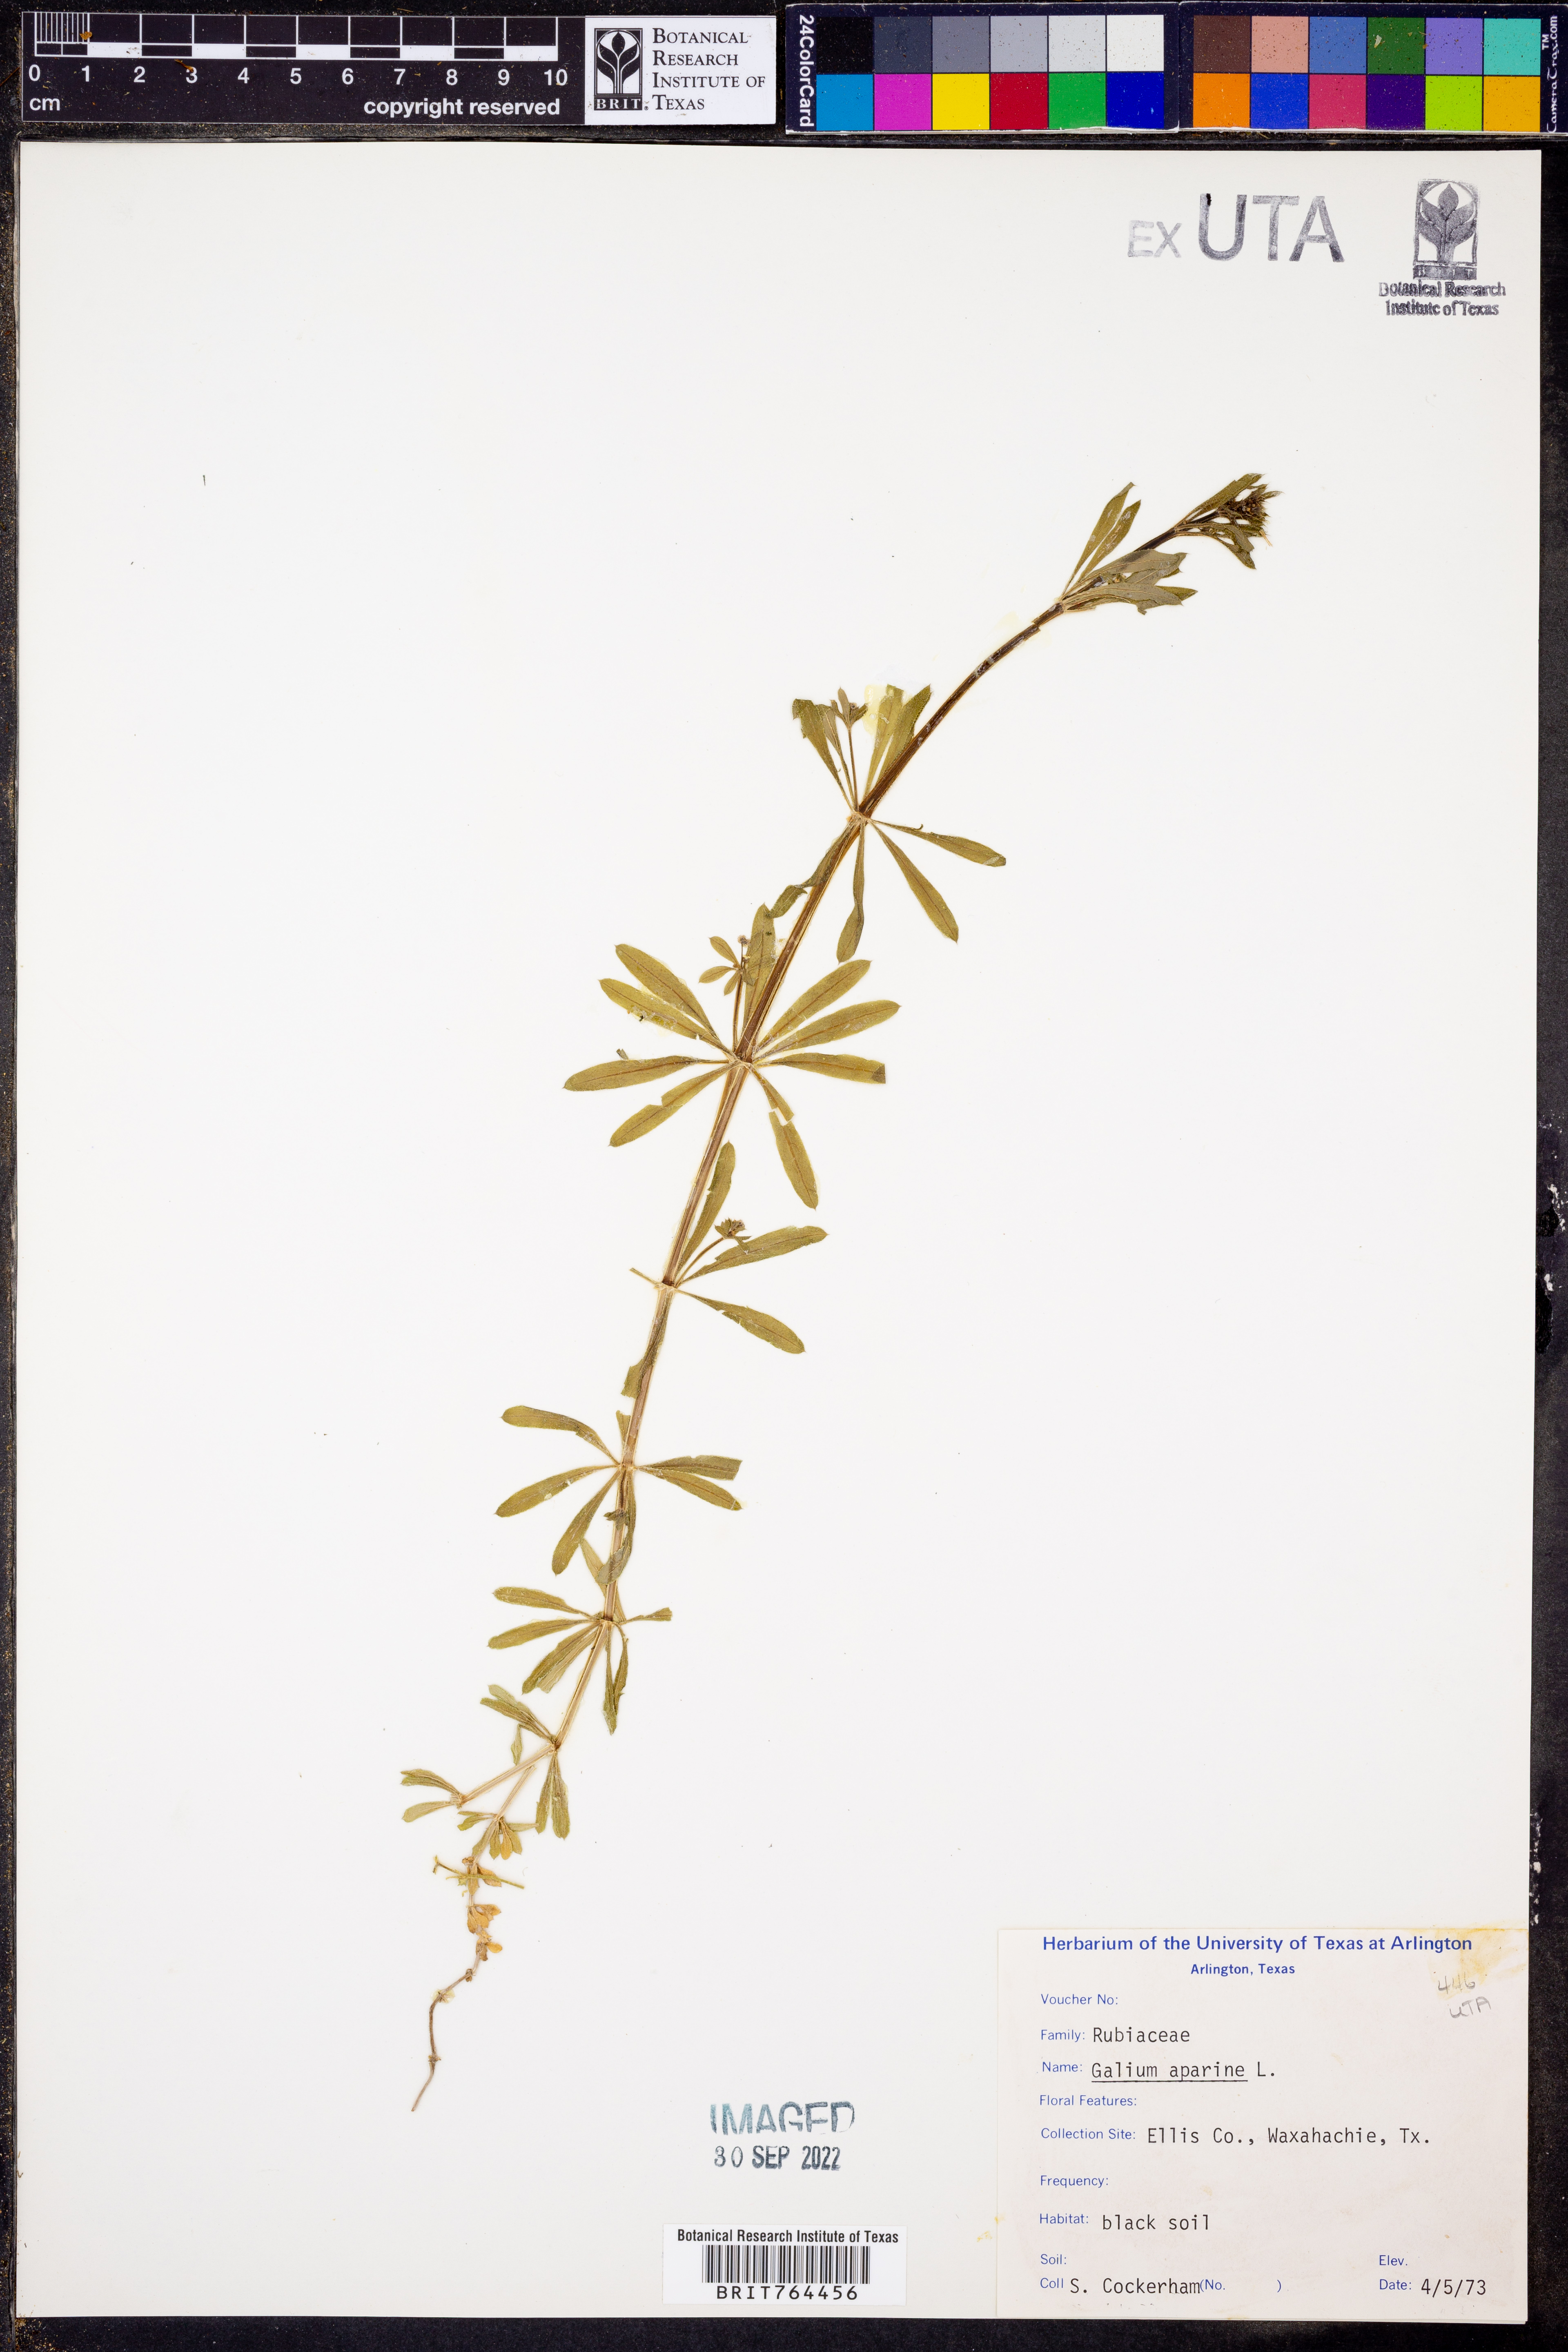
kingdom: Plantae
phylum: Tracheophyta
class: Magnoliopsida
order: Gentianales
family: Rubiaceae
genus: Galium
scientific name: Galium aparine
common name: Cleavers
